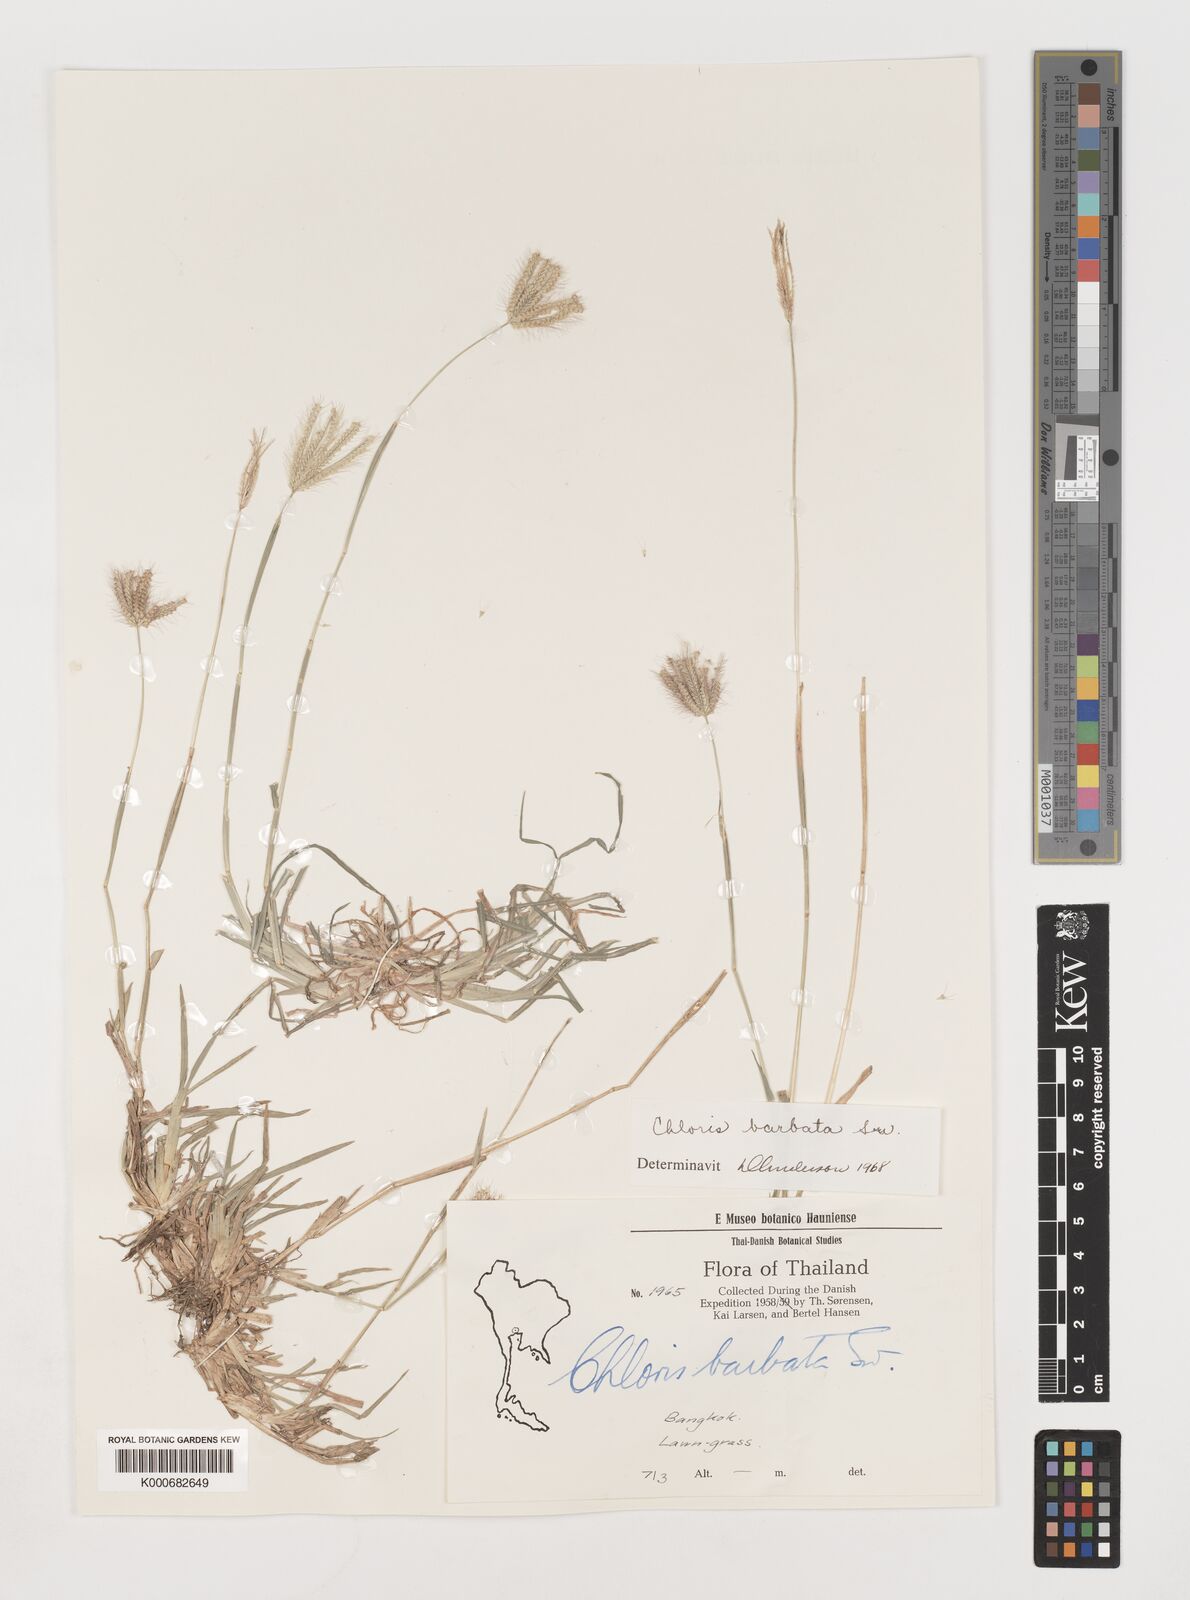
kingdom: Plantae
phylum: Tracheophyta
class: Liliopsida
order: Poales
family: Poaceae
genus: Chloris
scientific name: Chloris barbata
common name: Swollen fingergrass
